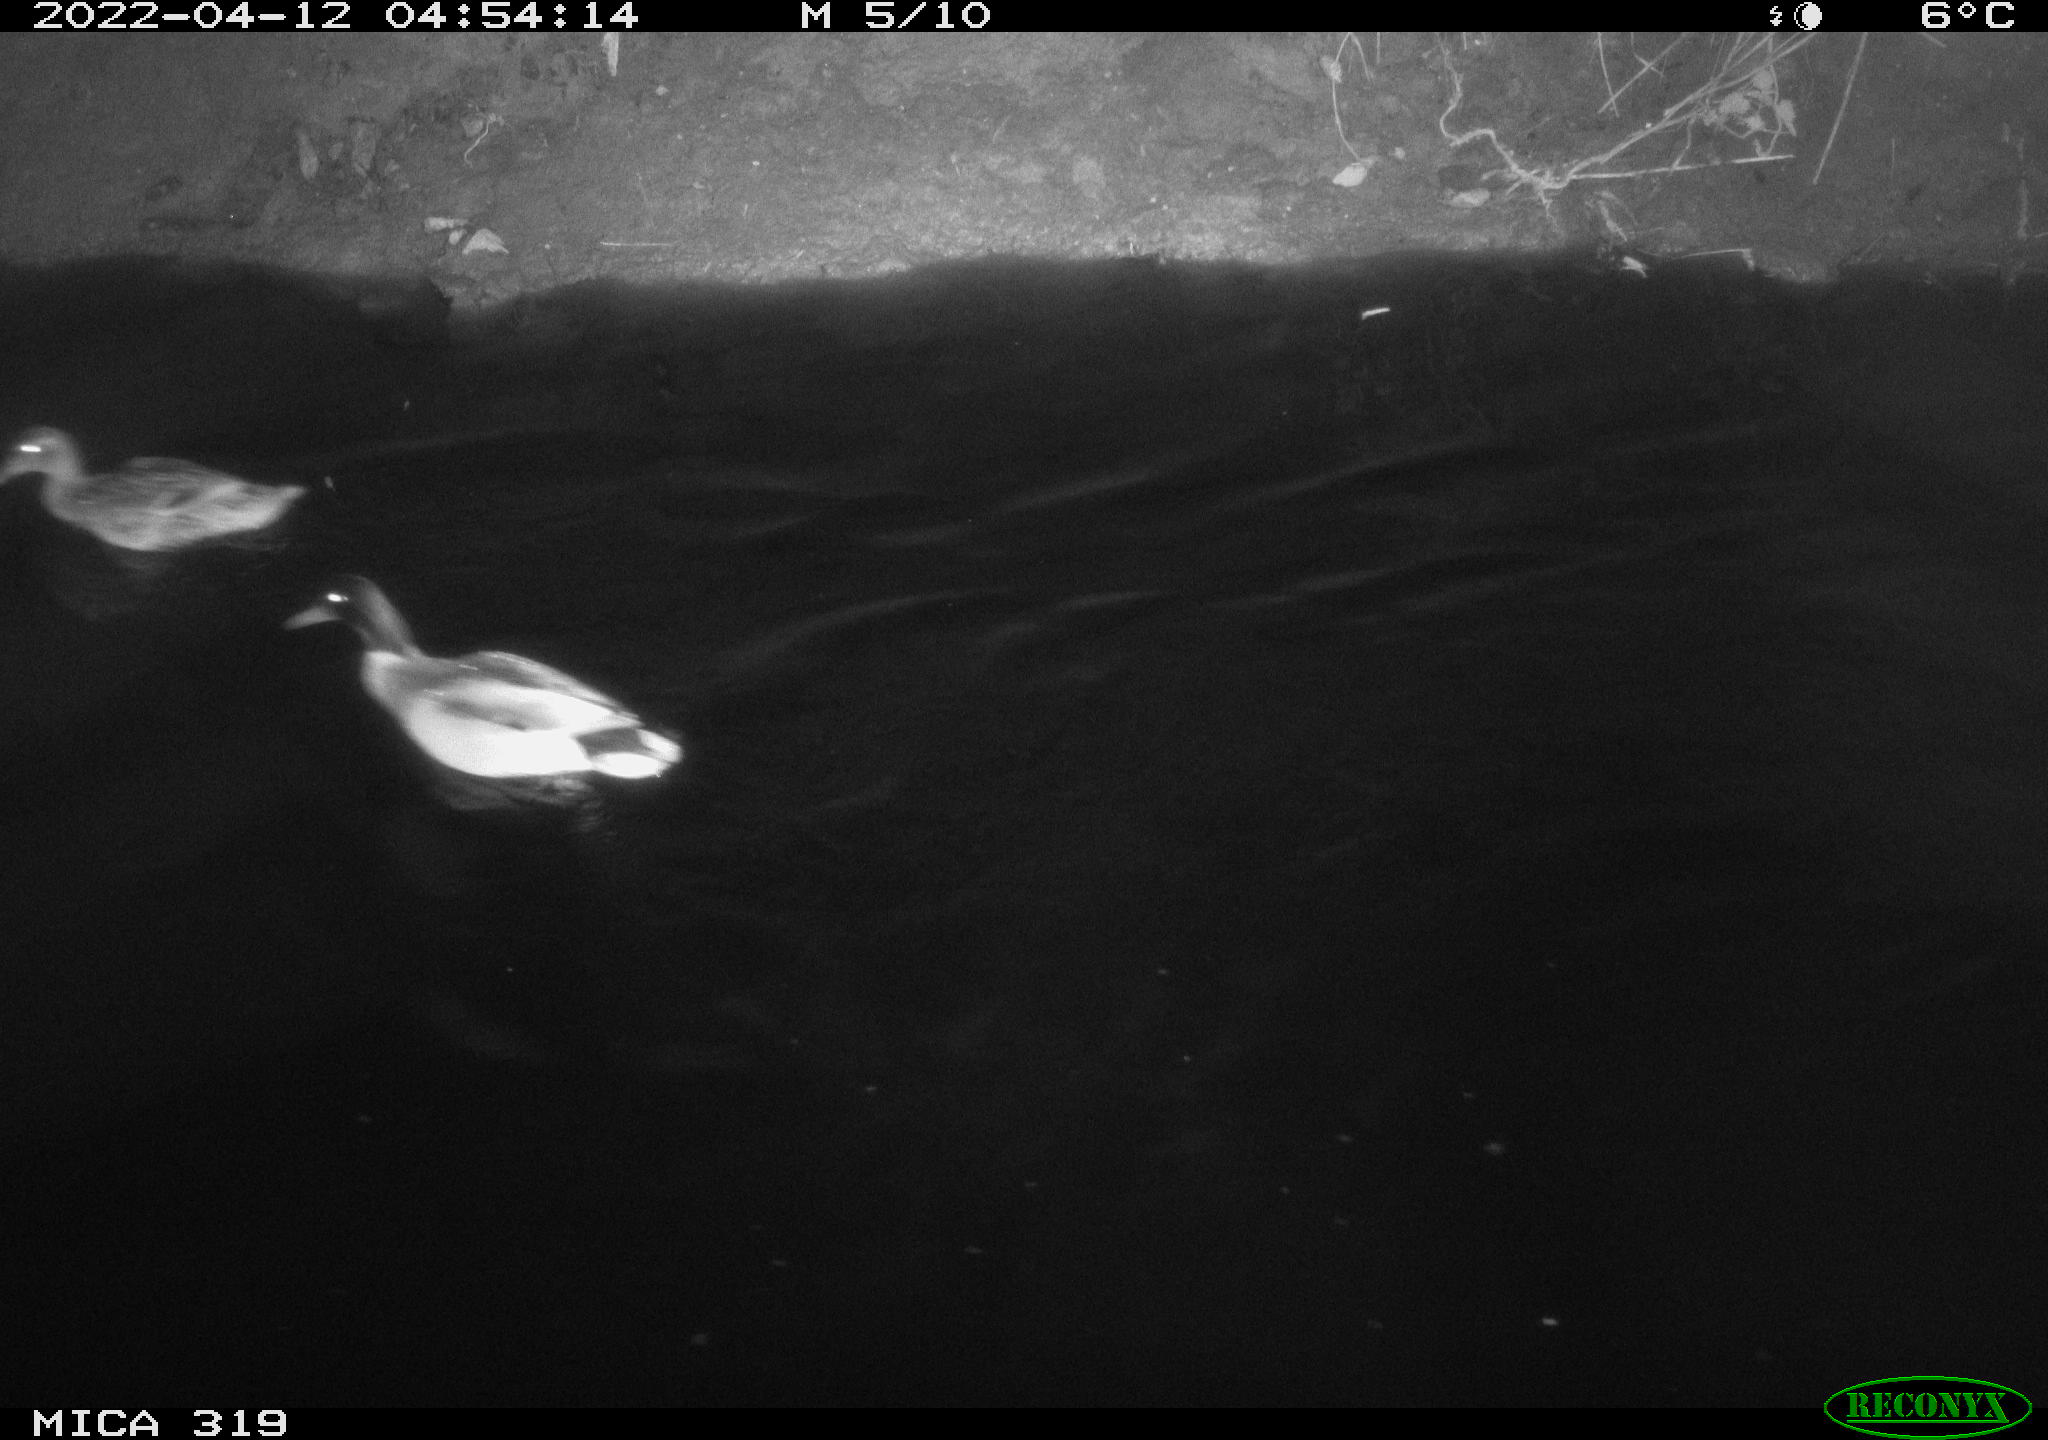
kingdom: Animalia
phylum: Chordata
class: Aves
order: Anseriformes
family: Anatidae
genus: Anas
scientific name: Anas platyrhynchos
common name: Mallard
